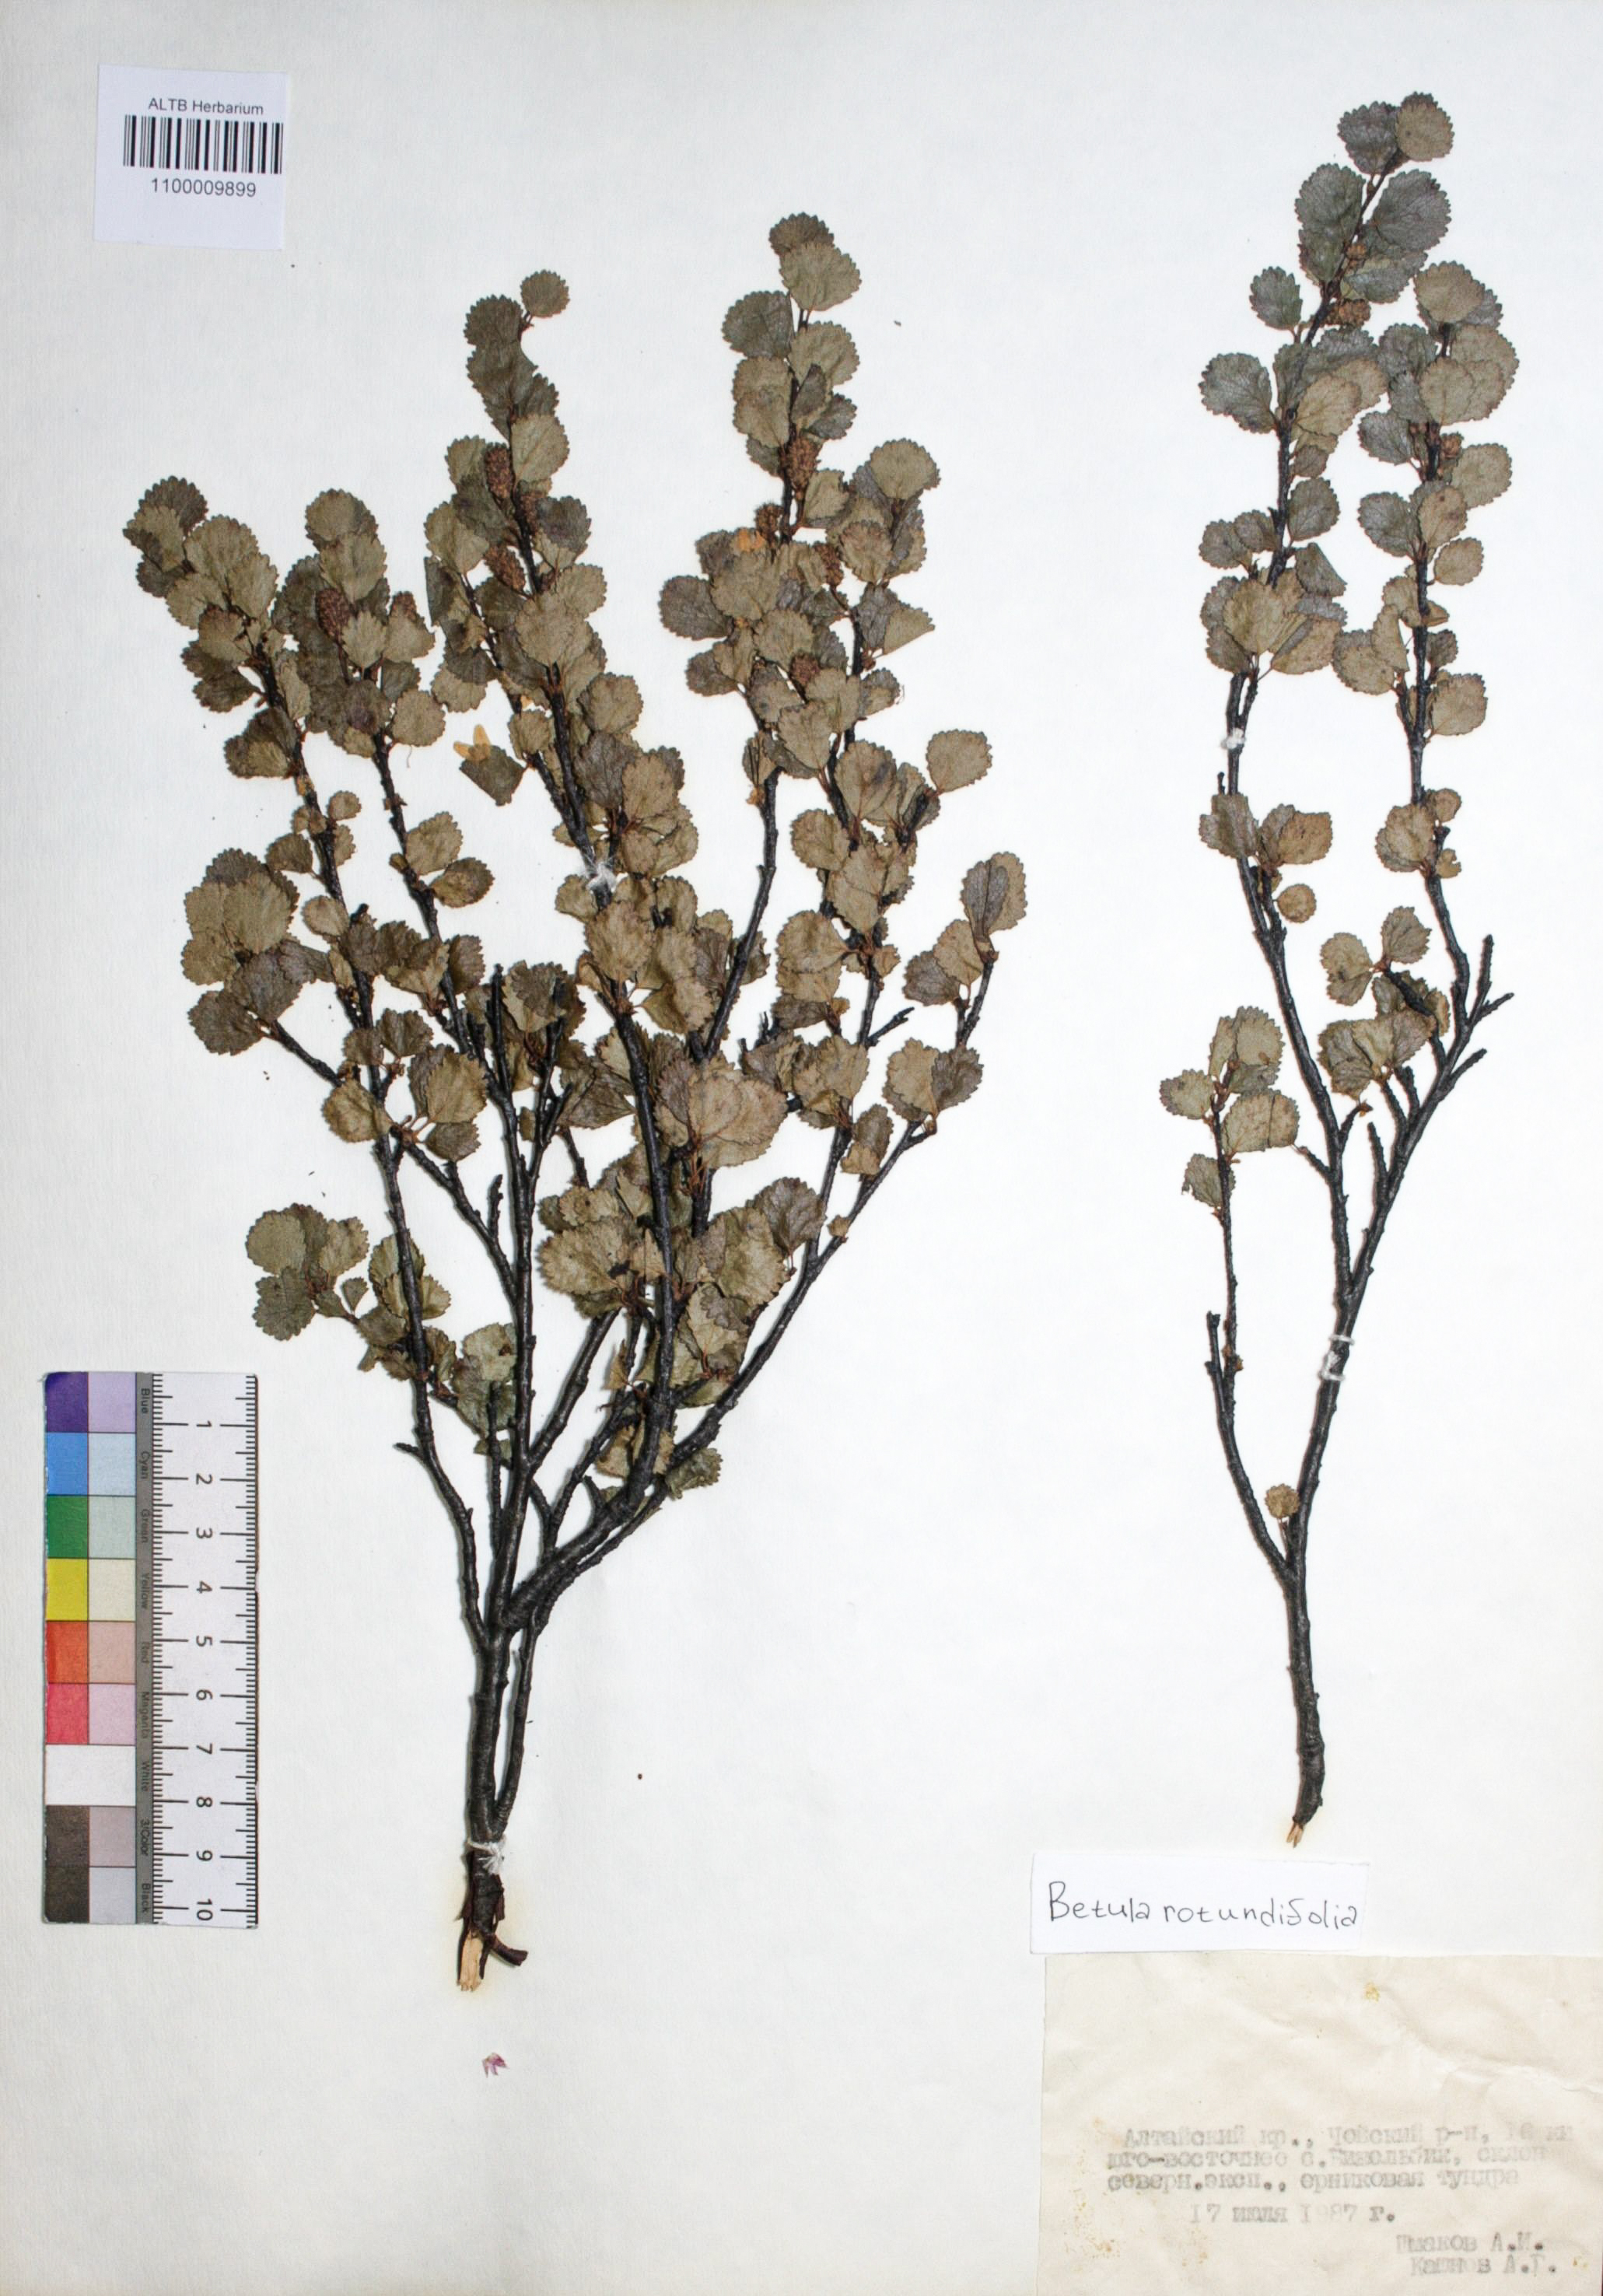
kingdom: Plantae
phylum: Tracheophyta
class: Magnoliopsida
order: Fagales
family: Betulaceae
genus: Betula
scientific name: Betula glandulosa
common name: Dwarf birch
